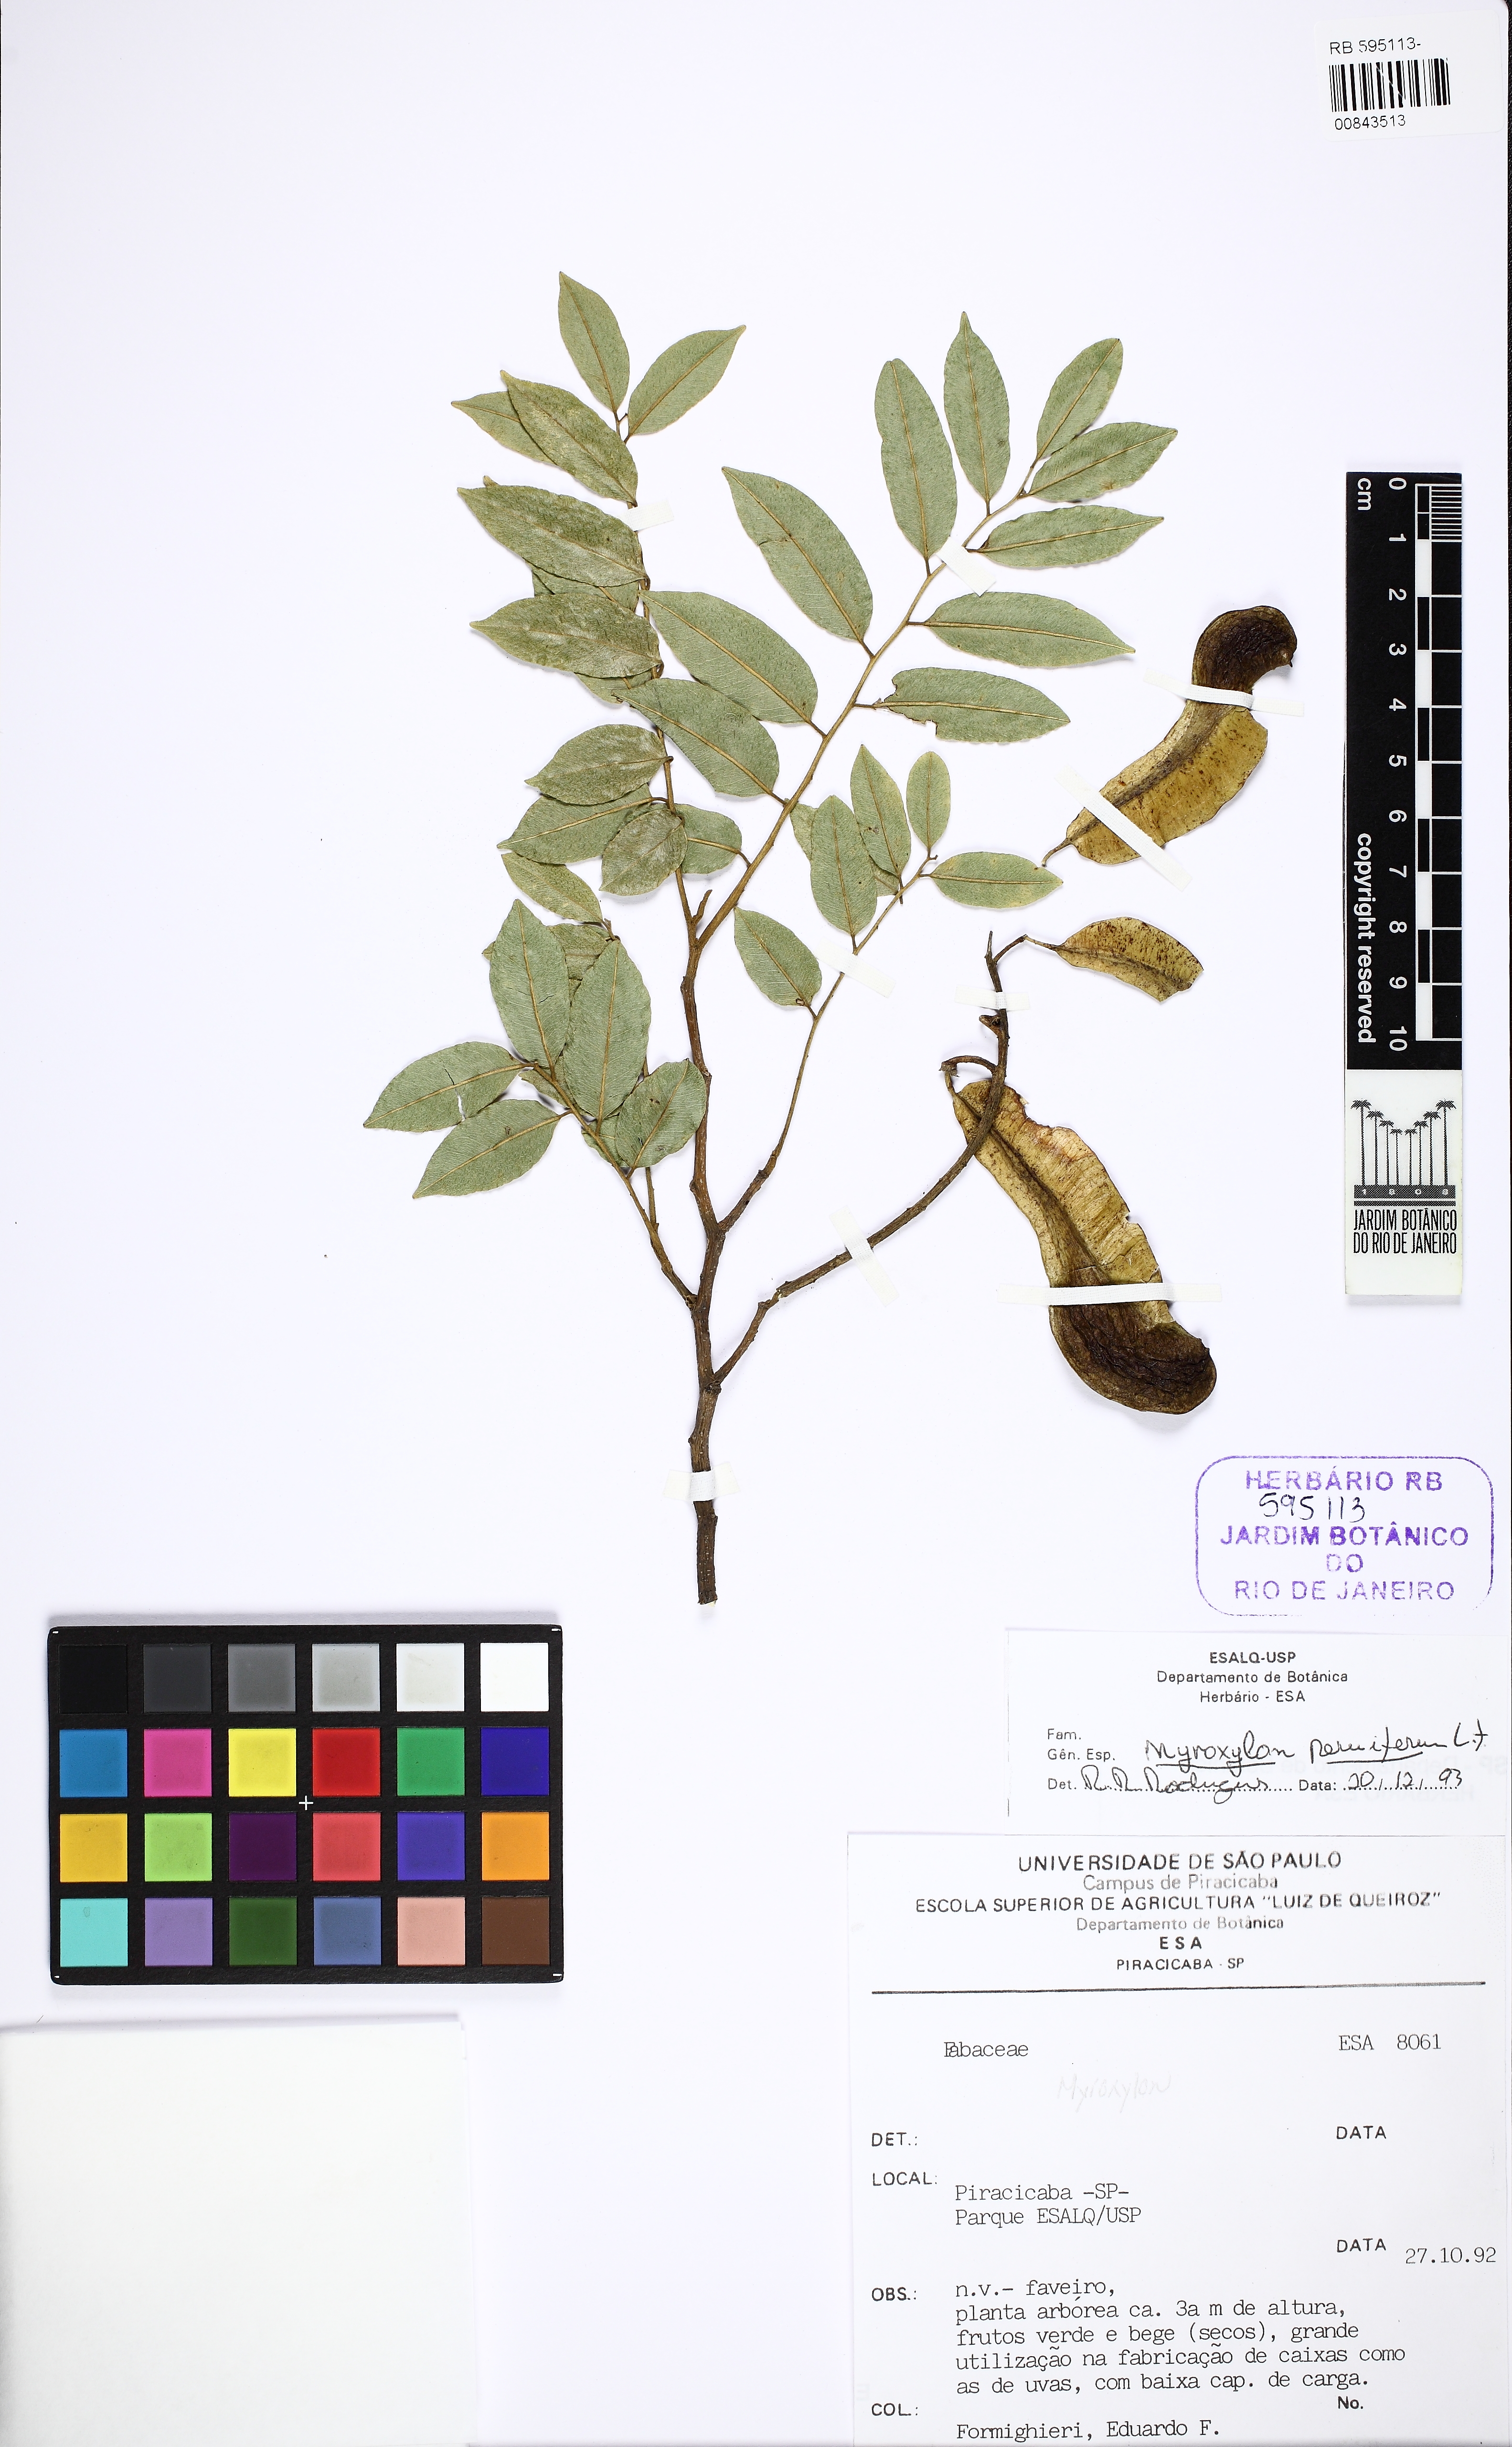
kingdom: Plantae
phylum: Tracheophyta
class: Magnoliopsida
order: Fabales
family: Fabaceae
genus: Myroxylon
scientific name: Myroxylon peruiferum
